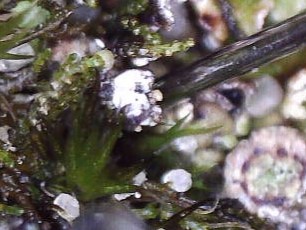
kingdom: Fungi
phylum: Ascomycota
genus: Talpapellis
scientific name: Talpapellis beschiana
